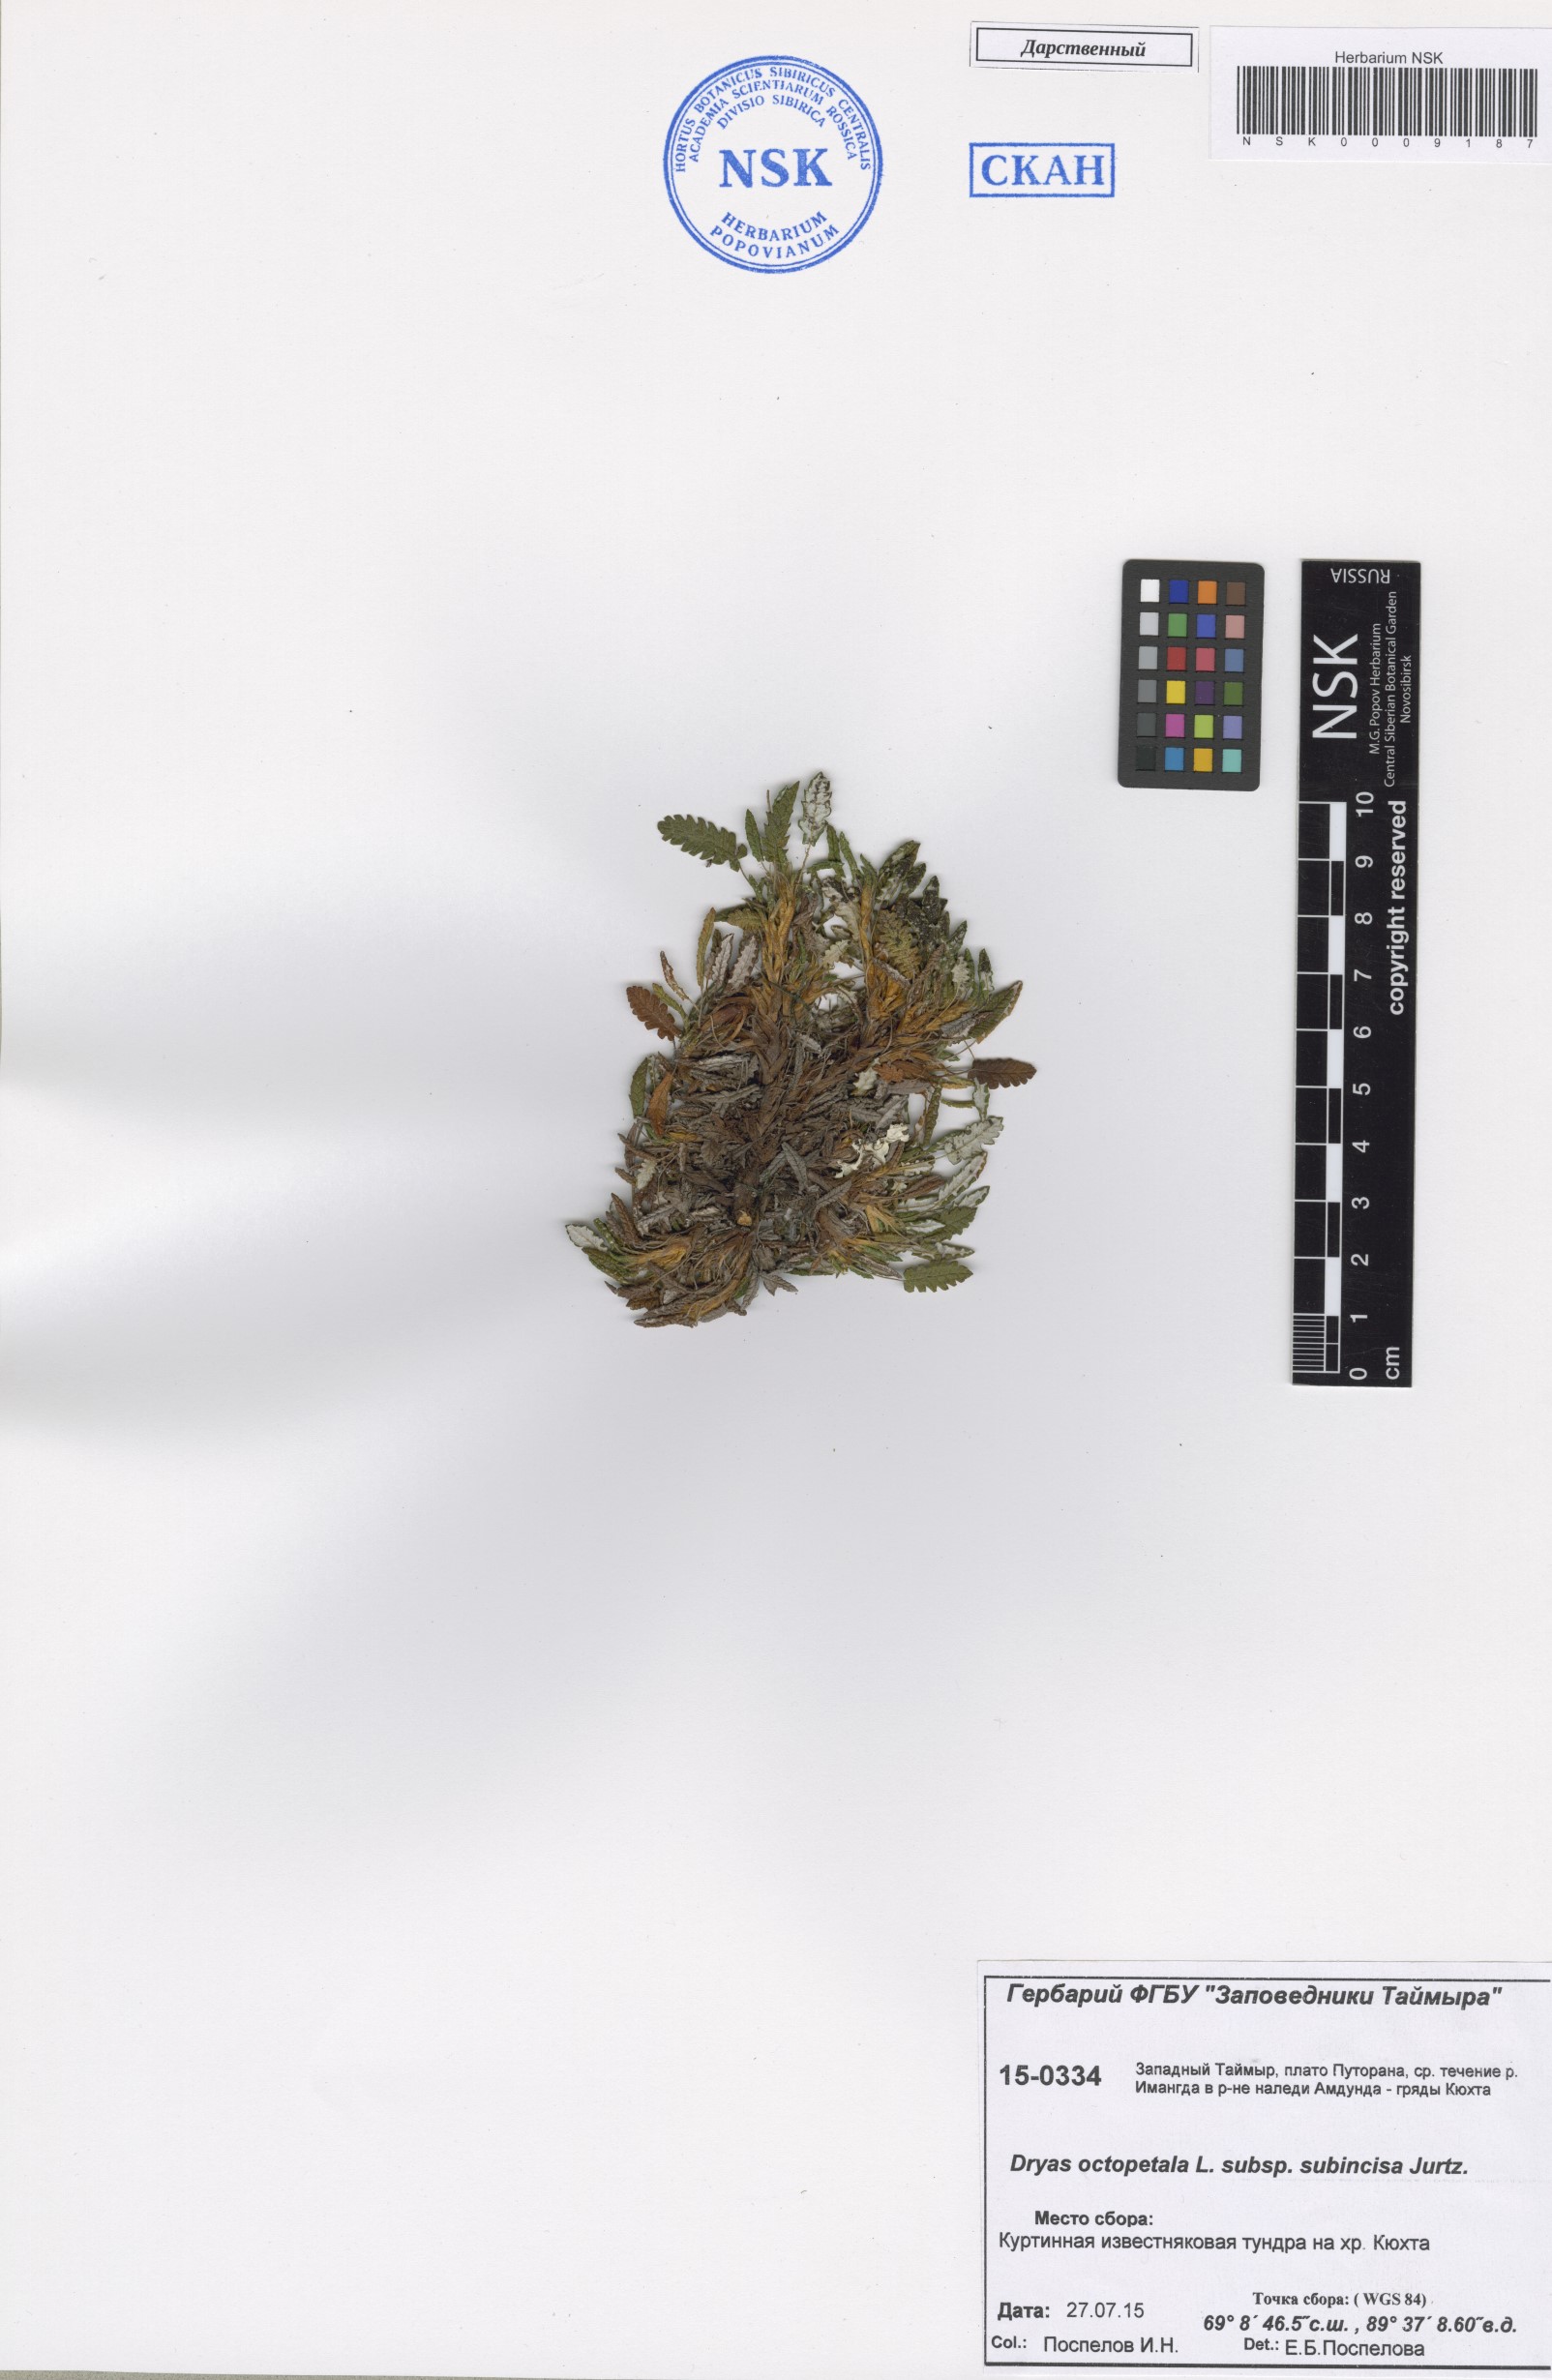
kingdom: Plantae
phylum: Tracheophyta
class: Magnoliopsida
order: Rosales
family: Rosaceae
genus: Dryas
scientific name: Dryas octopetala
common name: Eight-petal mountain-avens
